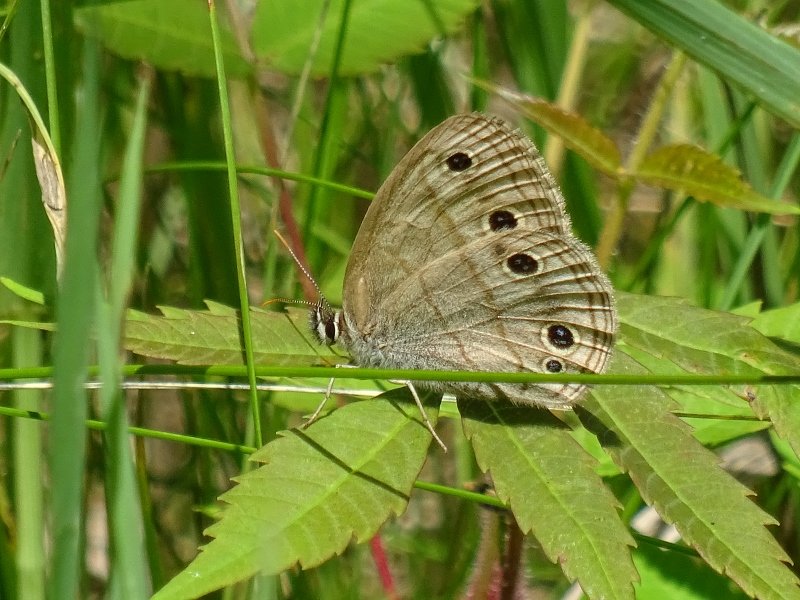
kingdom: Animalia
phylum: Arthropoda
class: Insecta
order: Lepidoptera
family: Nymphalidae
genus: Euptychia
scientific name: Euptychia cymela
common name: Little Wood Satyr
